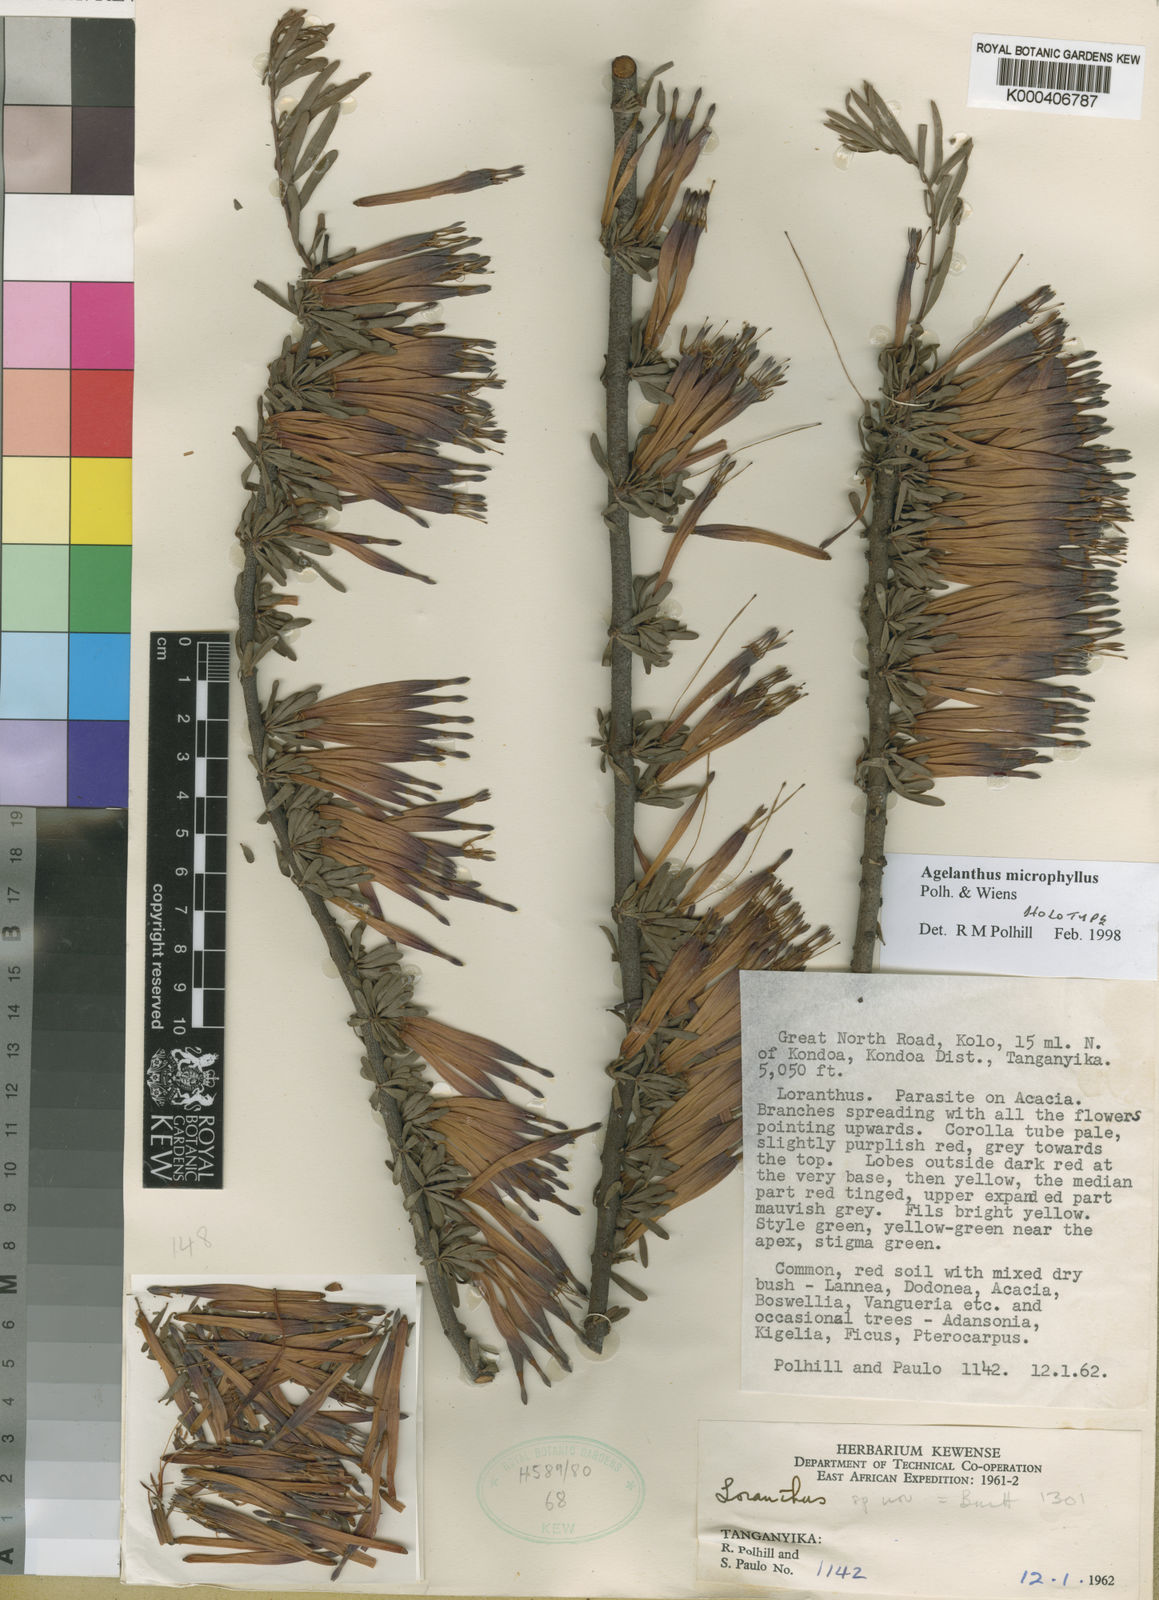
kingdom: Plantae
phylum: Tracheophyta
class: Magnoliopsida
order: Santalales
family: Loranthaceae
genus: Agelanthus
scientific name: Agelanthus microphyllus
